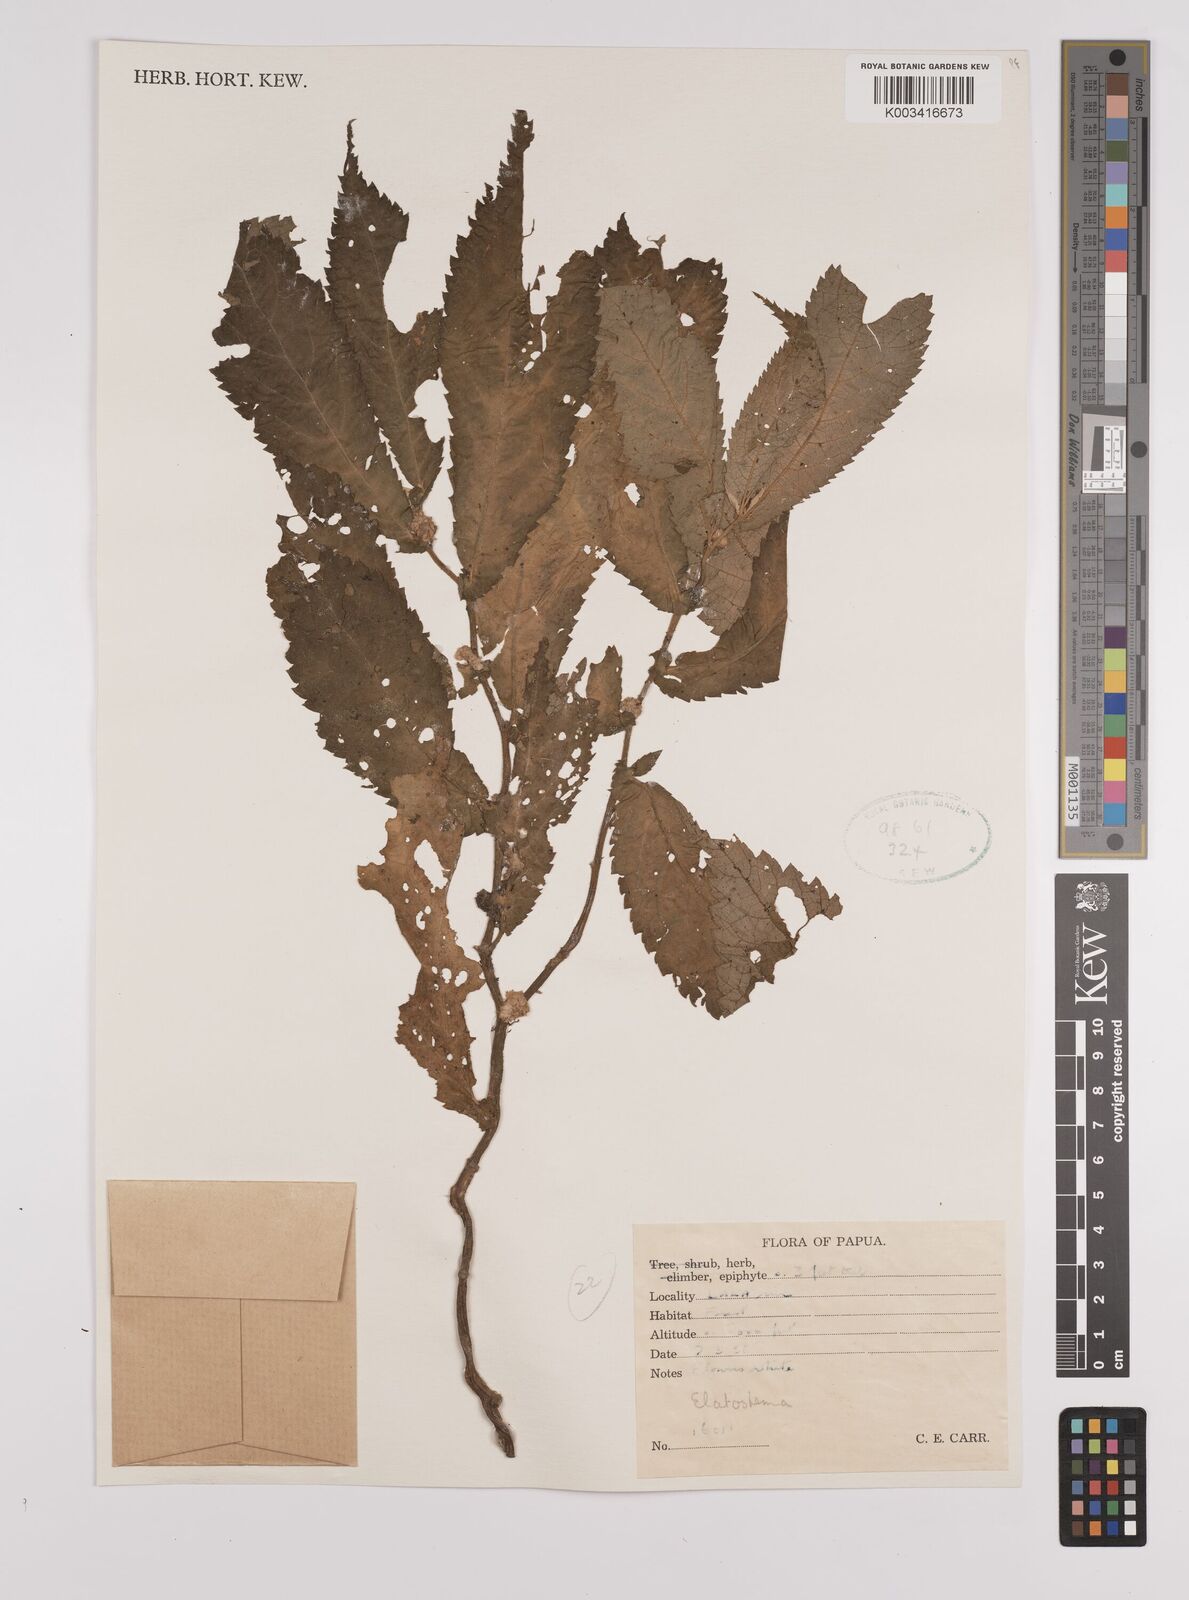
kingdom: Plantae
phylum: Tracheophyta
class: Magnoliopsida
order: Rosales
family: Urticaceae
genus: Elatostema
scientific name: Elatostema
